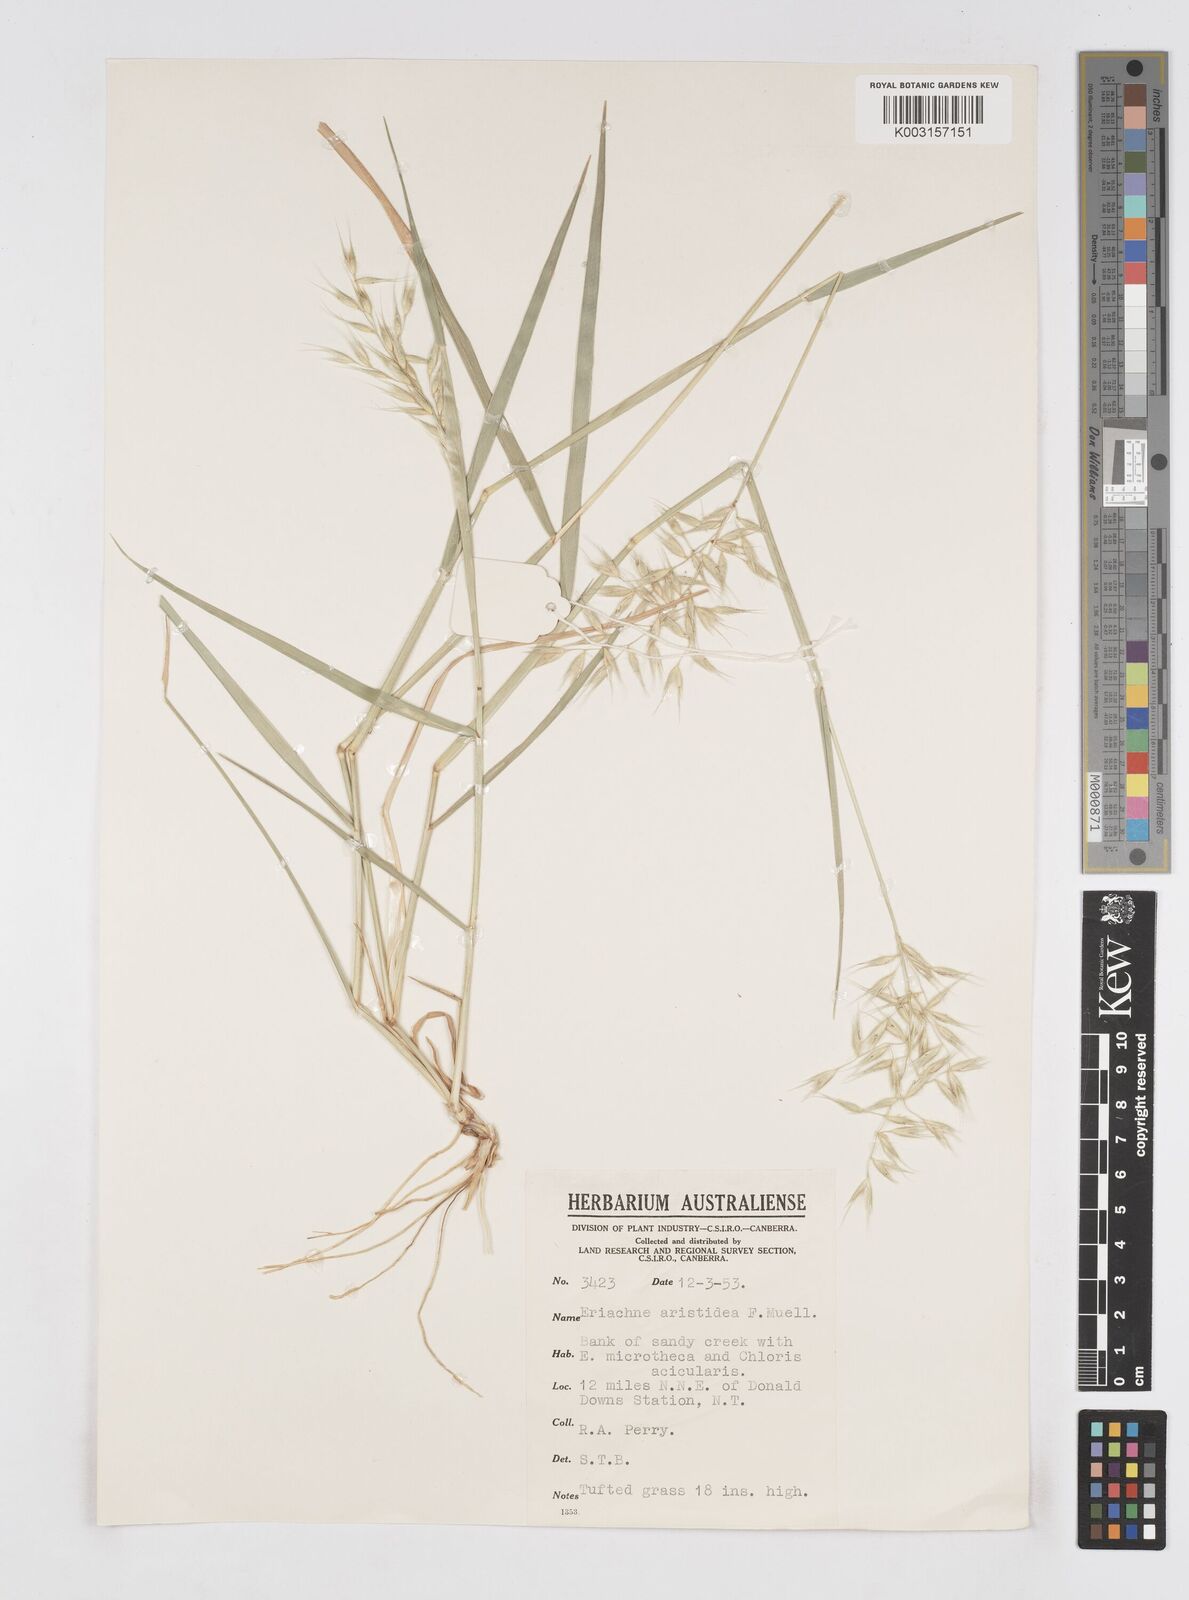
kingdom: Plantae
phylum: Tracheophyta
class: Liliopsida
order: Poales
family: Poaceae
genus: Eriachne
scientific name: Eriachne aristidea
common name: Three-awn wanderrie grass
